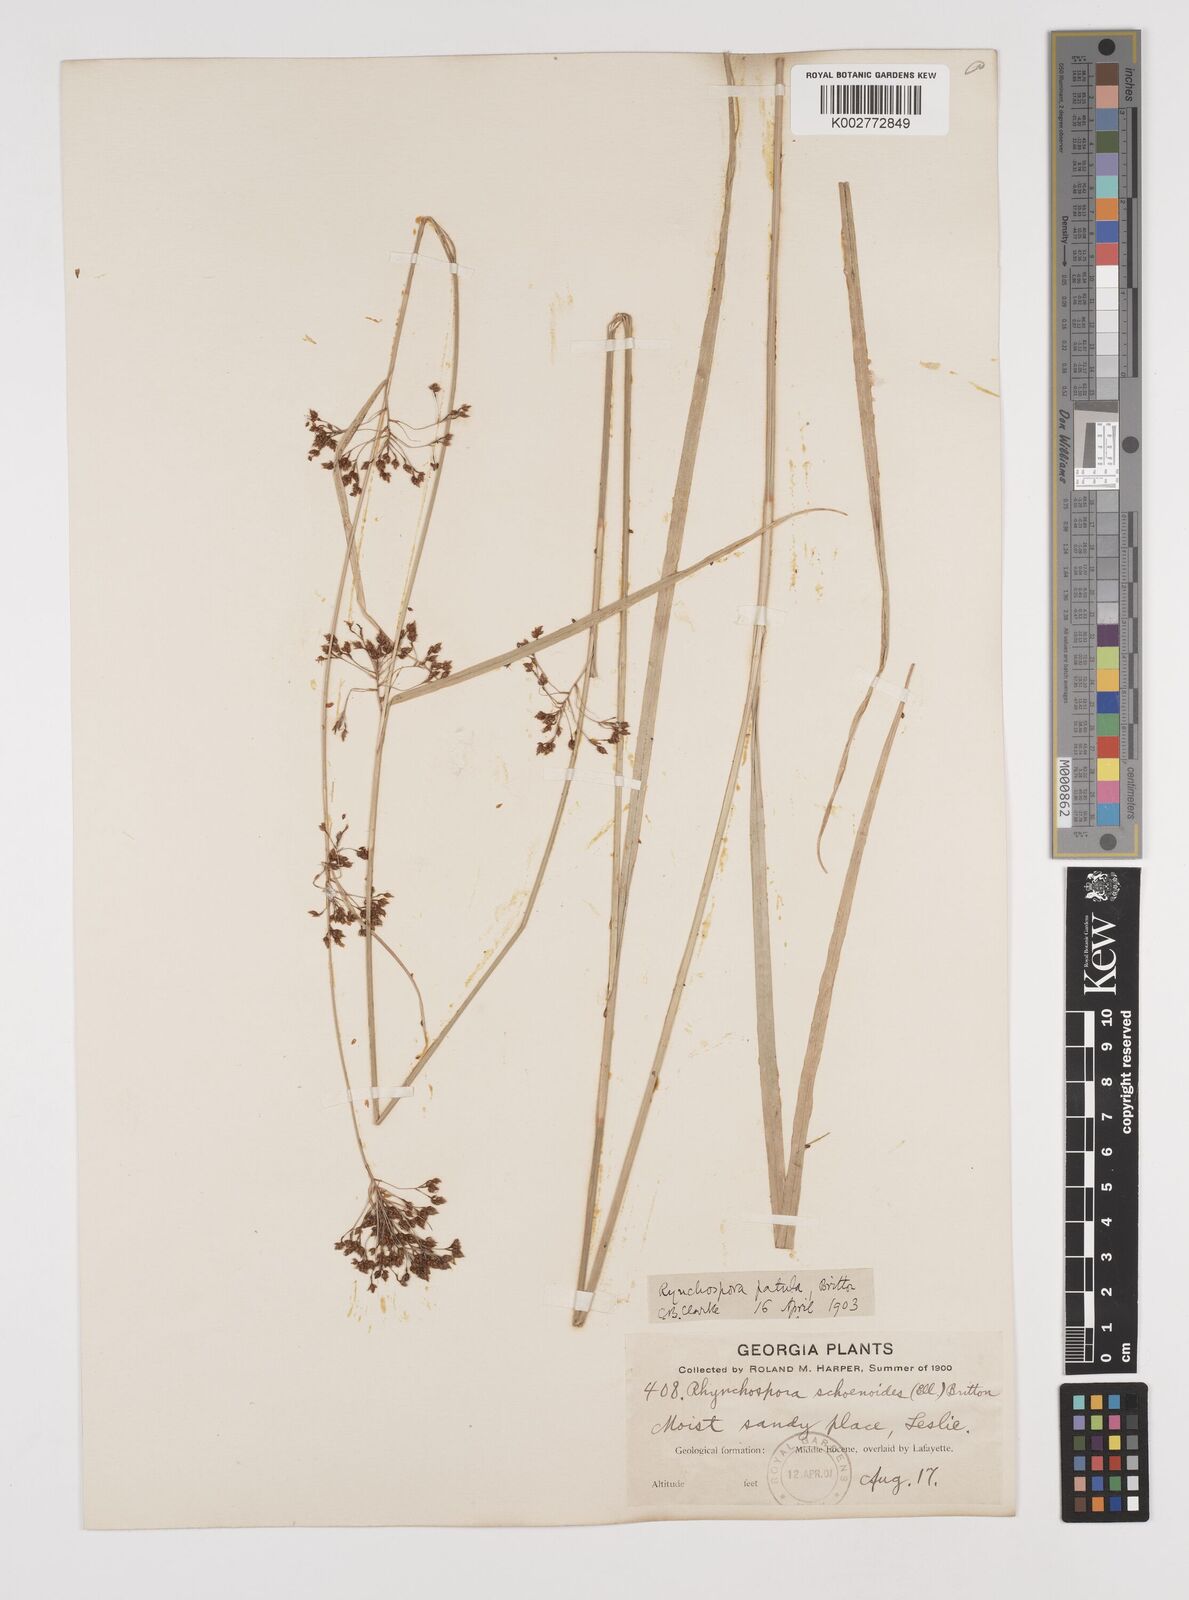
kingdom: Plantae
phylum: Tracheophyta
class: Liliopsida
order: Poales
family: Cyperaceae
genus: Rhynchospora
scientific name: Rhynchospora caduca
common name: Anglestem beaksedge
